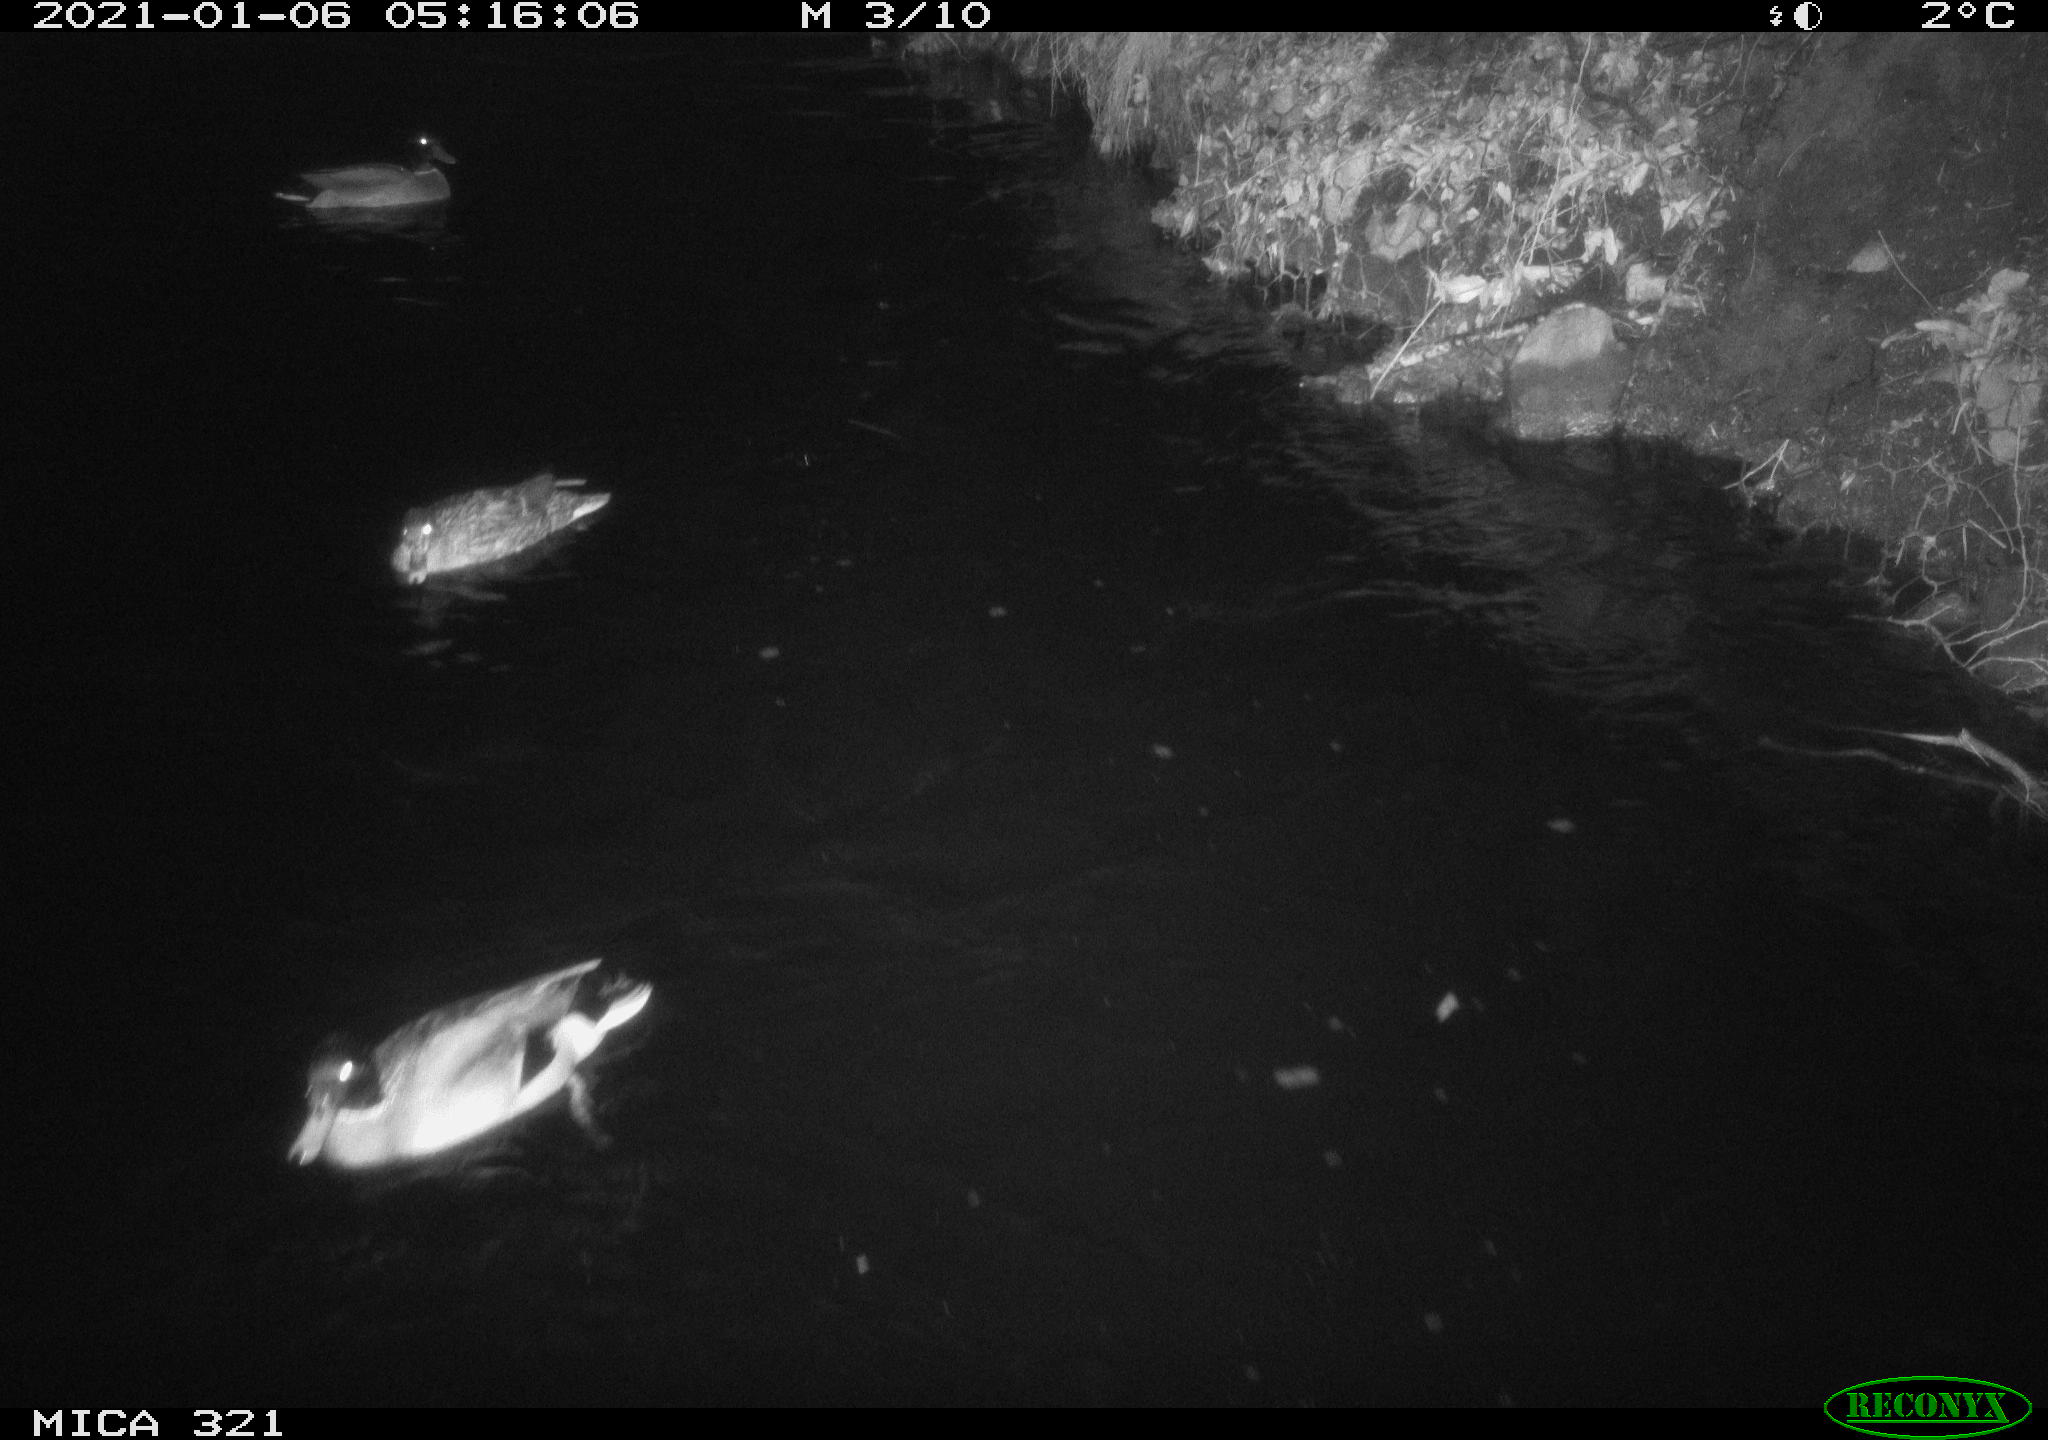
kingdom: Animalia
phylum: Chordata
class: Aves
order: Anseriformes
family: Anatidae
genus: Anas
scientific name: Anas platyrhynchos
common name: Mallard
